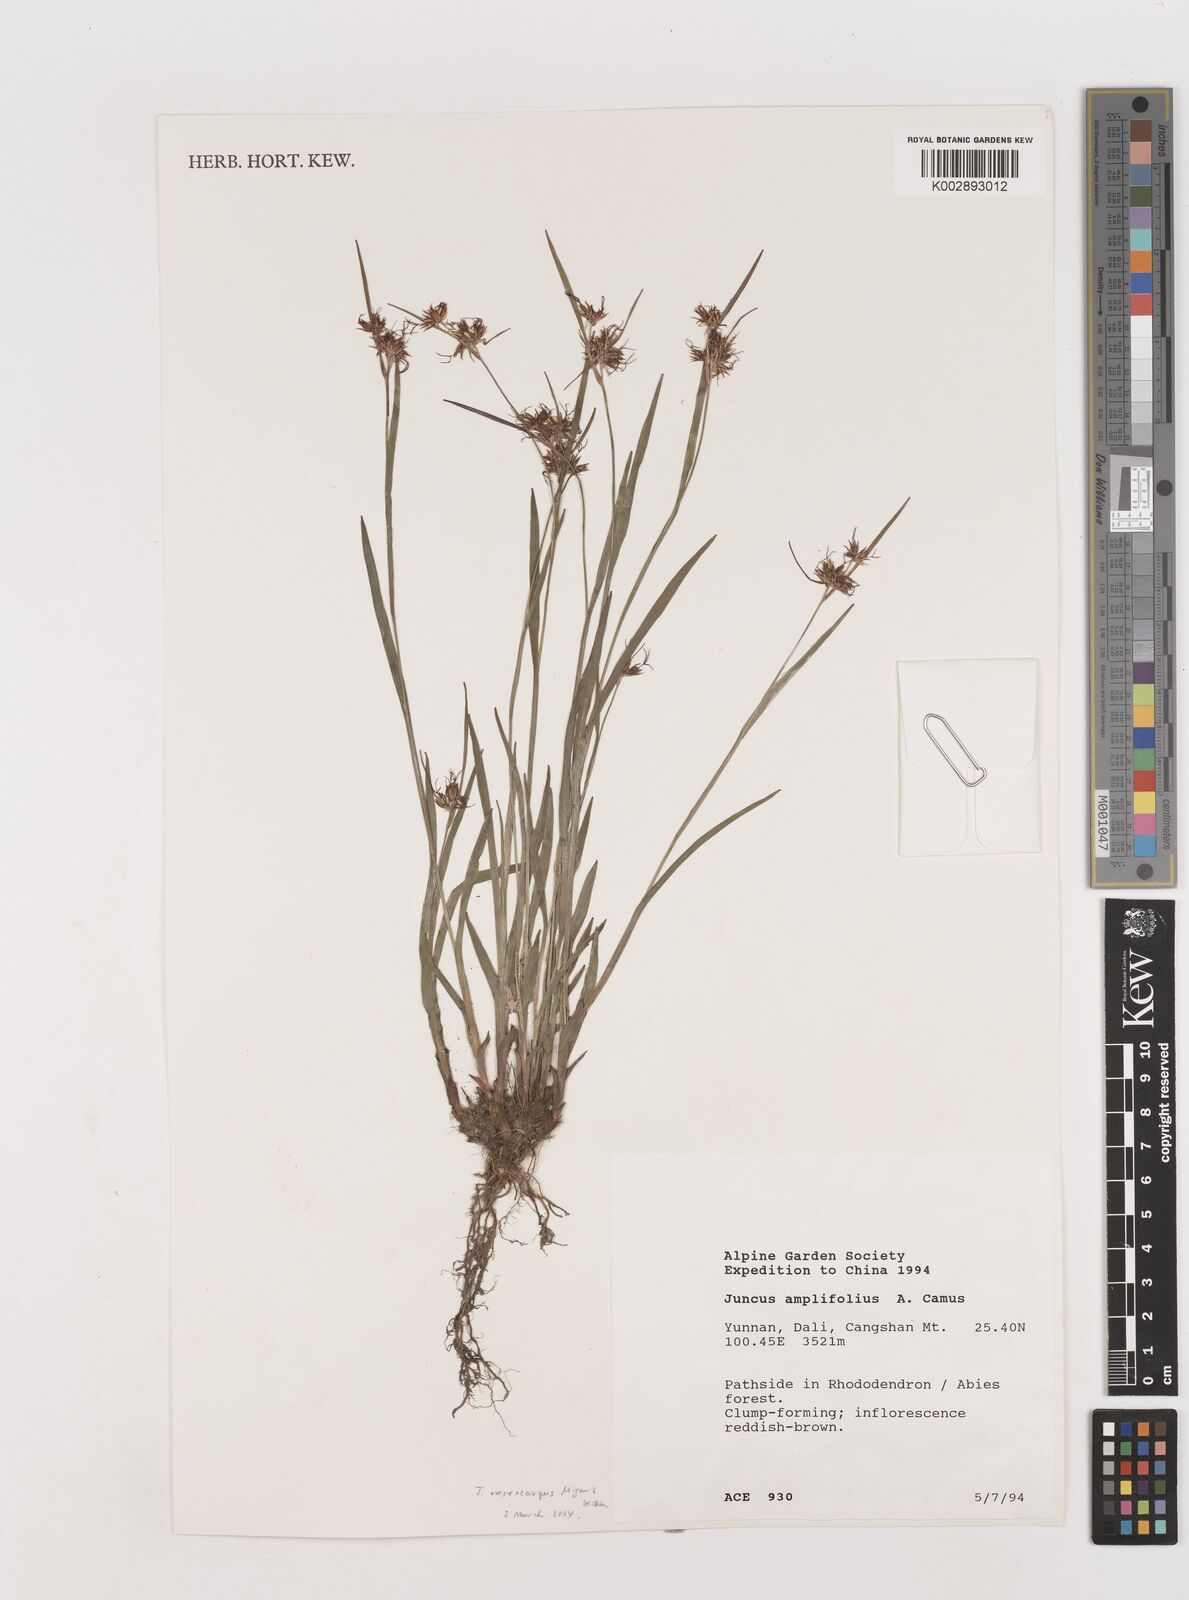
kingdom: Plantae
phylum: Tracheophyta
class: Liliopsida
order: Poales
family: Juncaceae
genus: Juncus
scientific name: Juncus amplifolius
